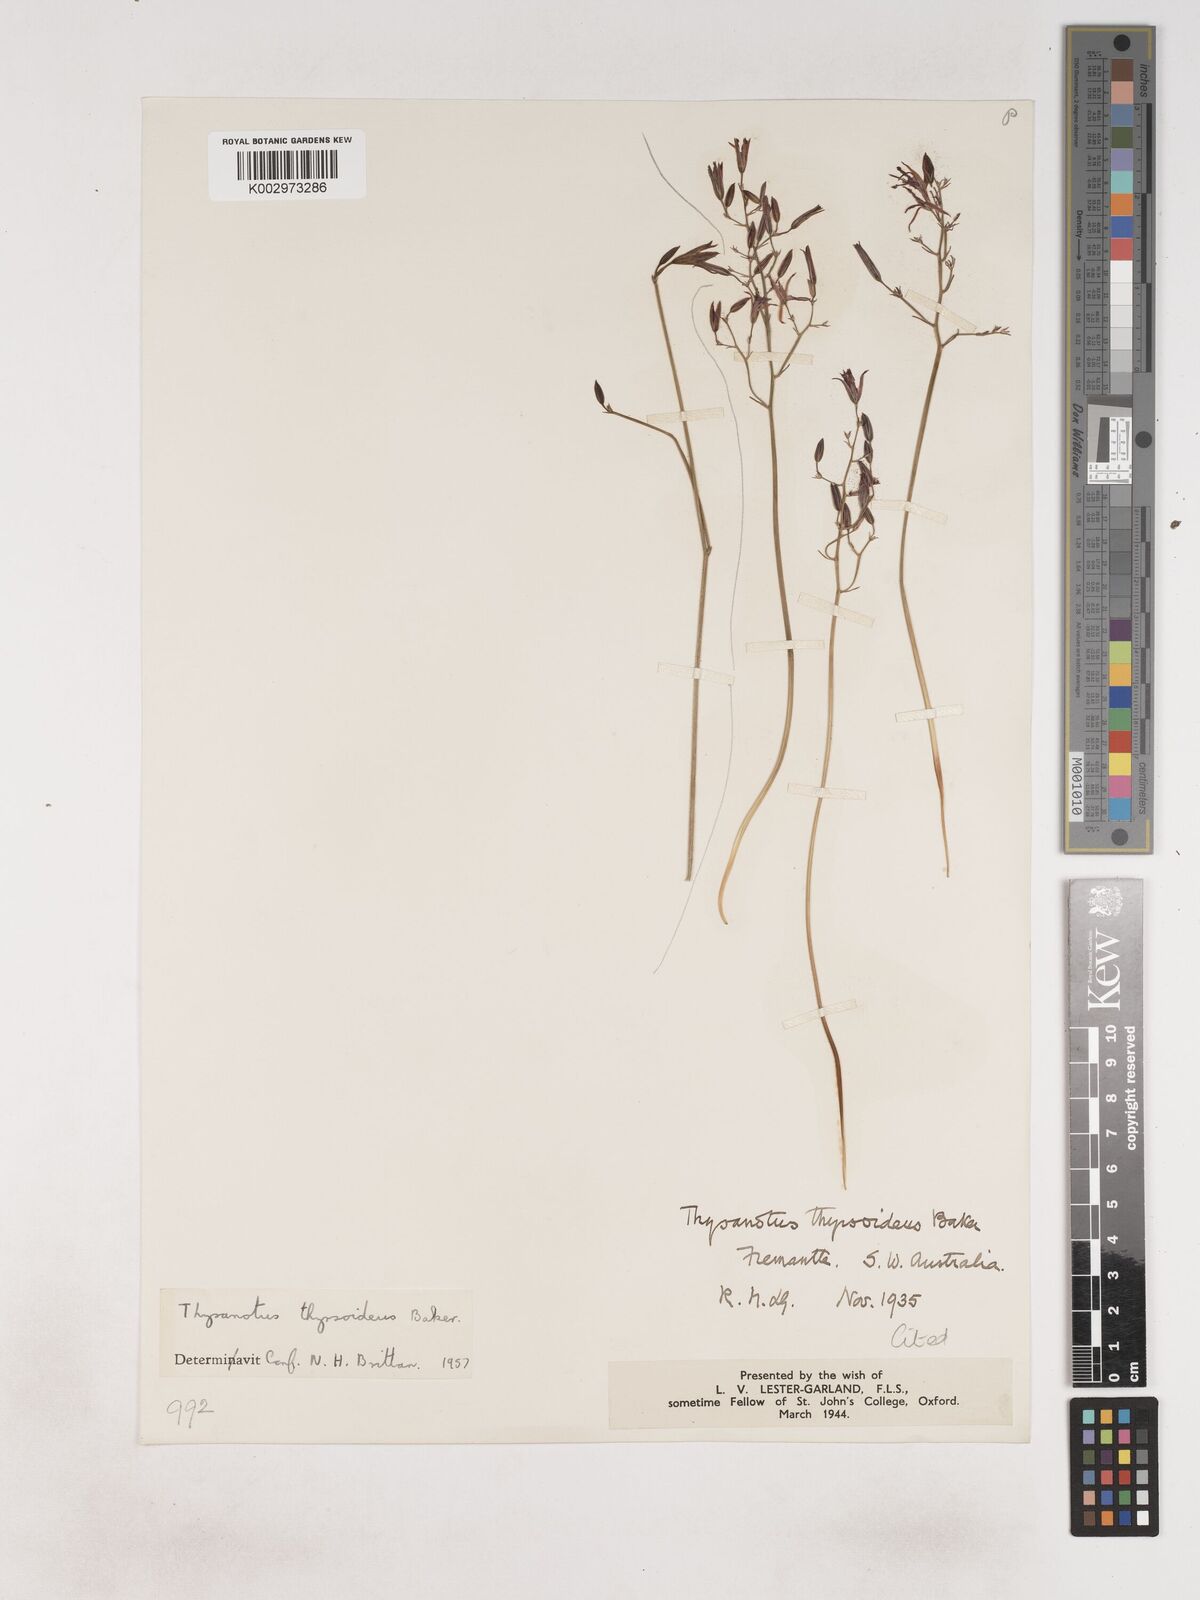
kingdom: Plantae
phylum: Tracheophyta
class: Liliopsida
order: Asparagales
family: Asparagaceae
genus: Thysanotus
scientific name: Thysanotus thyrsoideus
